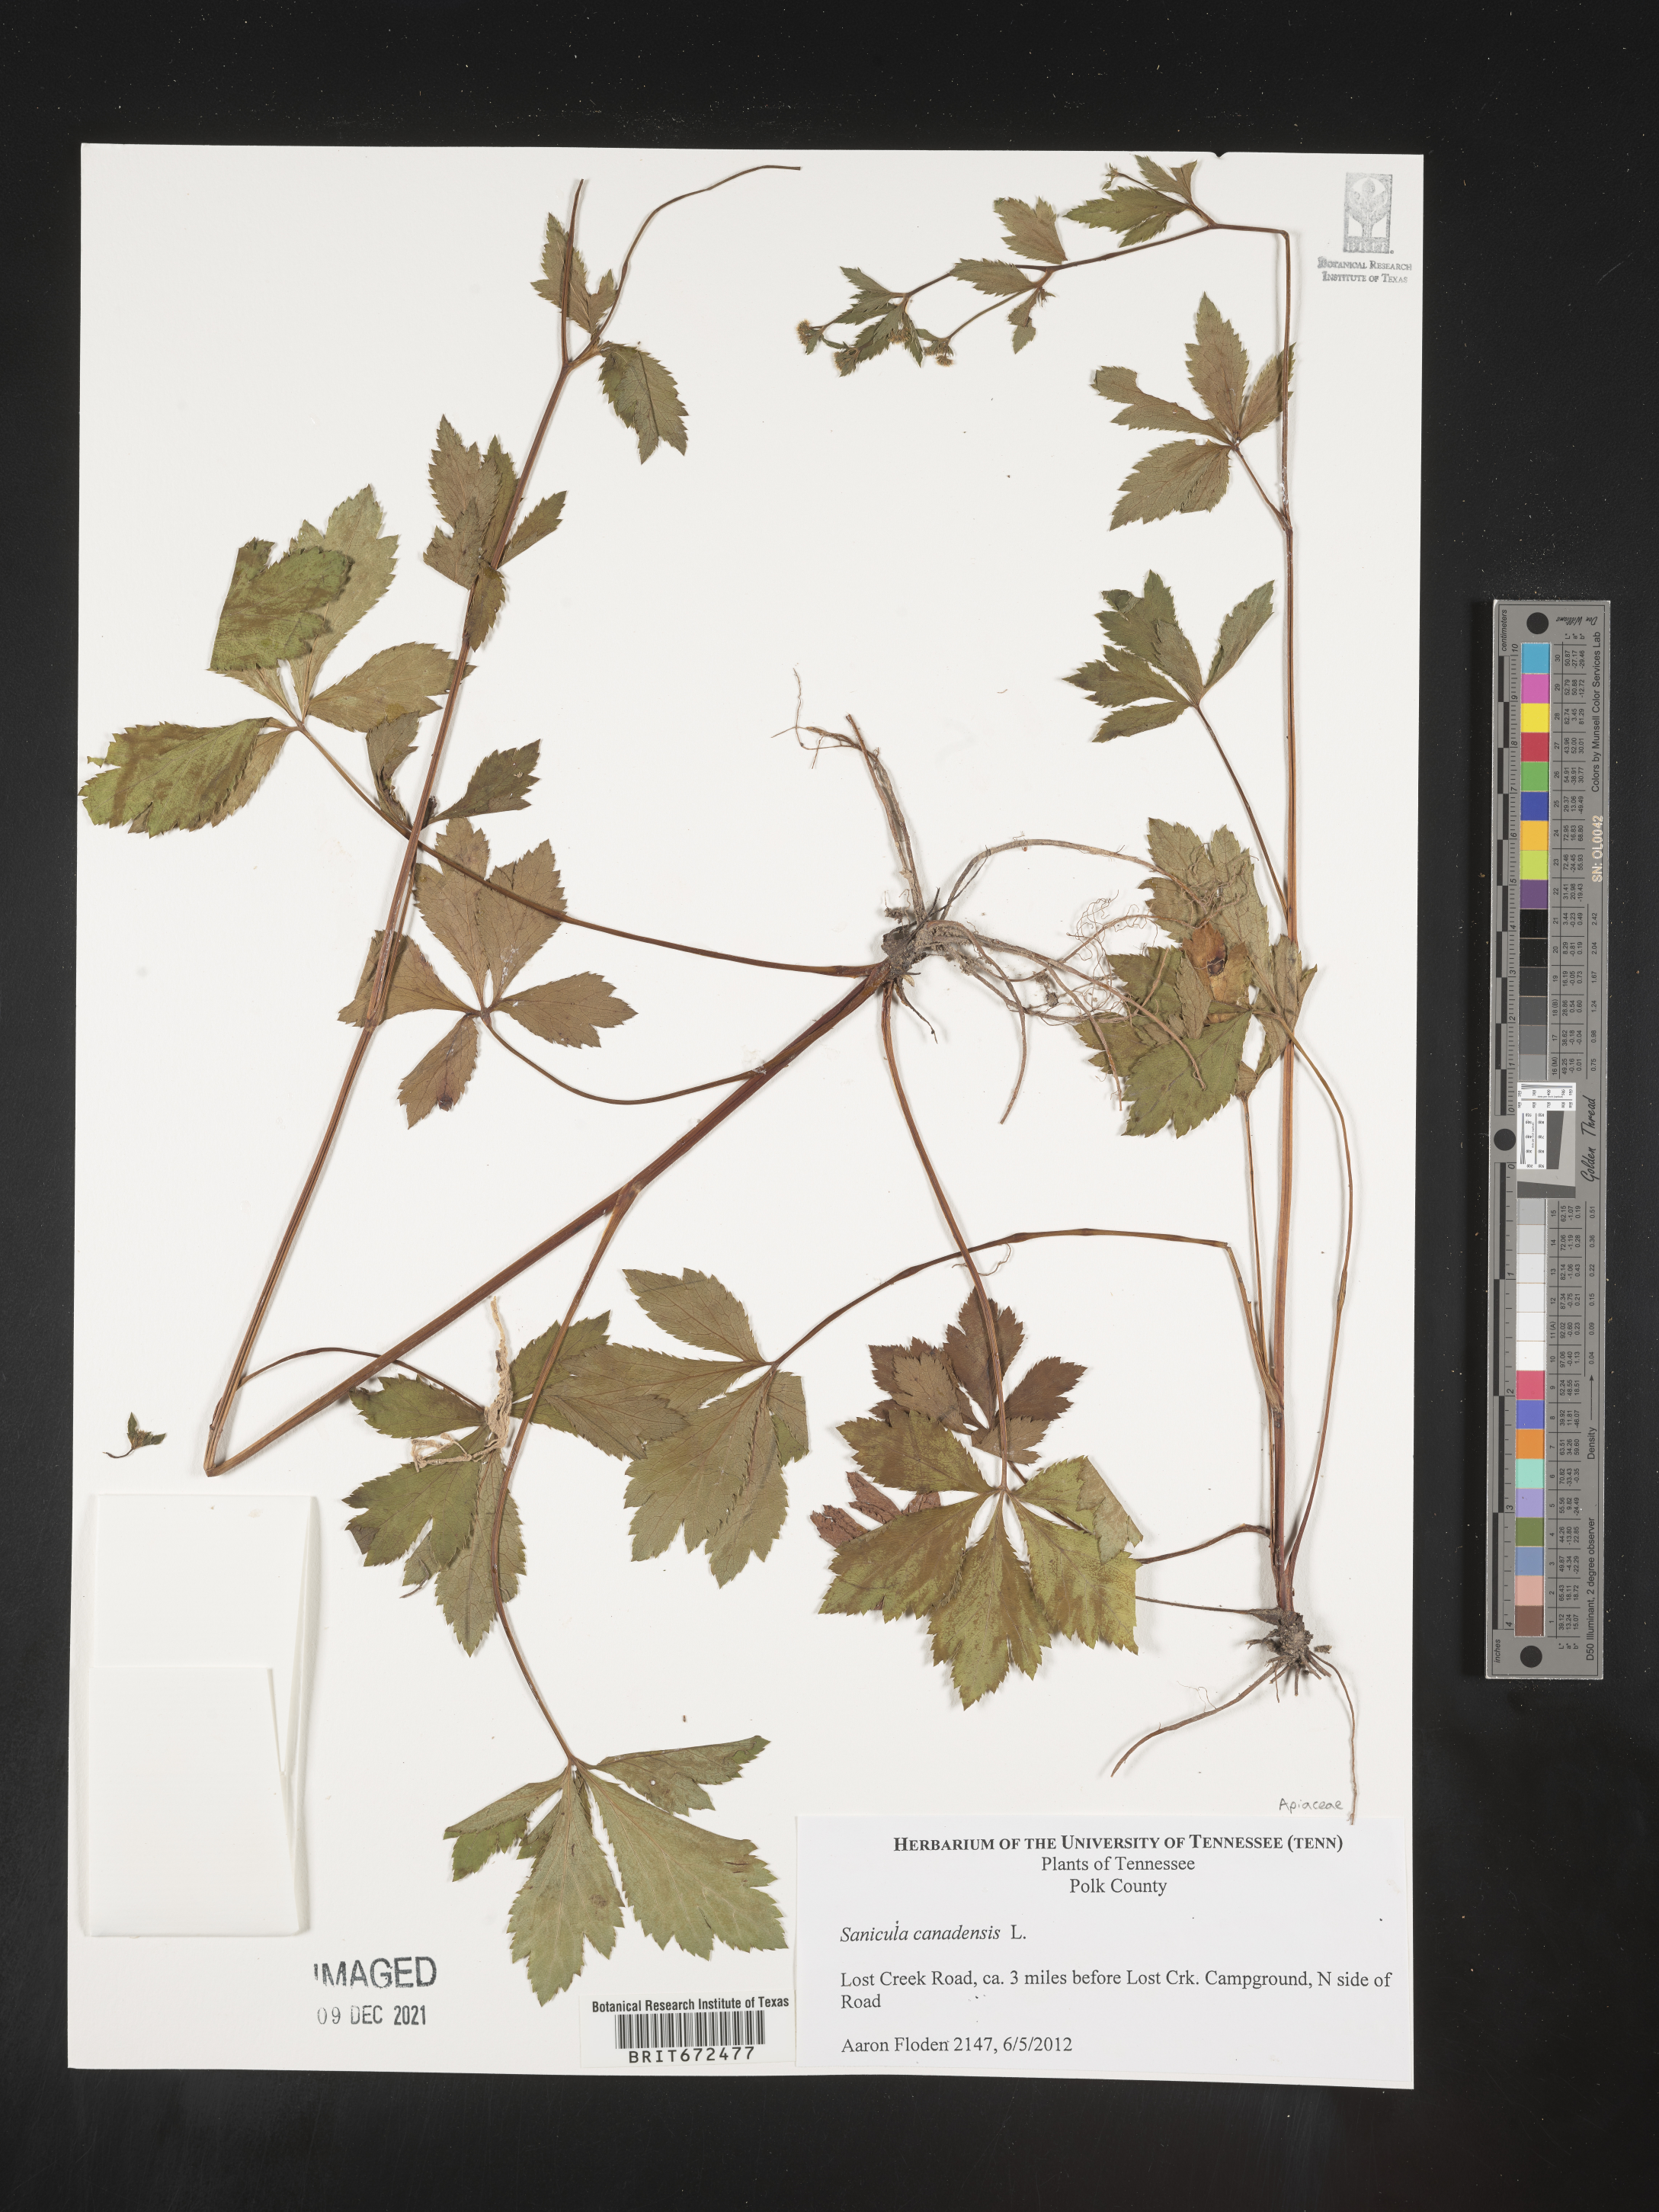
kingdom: Plantae
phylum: Tracheophyta
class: Magnoliopsida
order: Apiales
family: Apiaceae
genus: Sanicula
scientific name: Sanicula canadensis
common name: Canada sanicle
